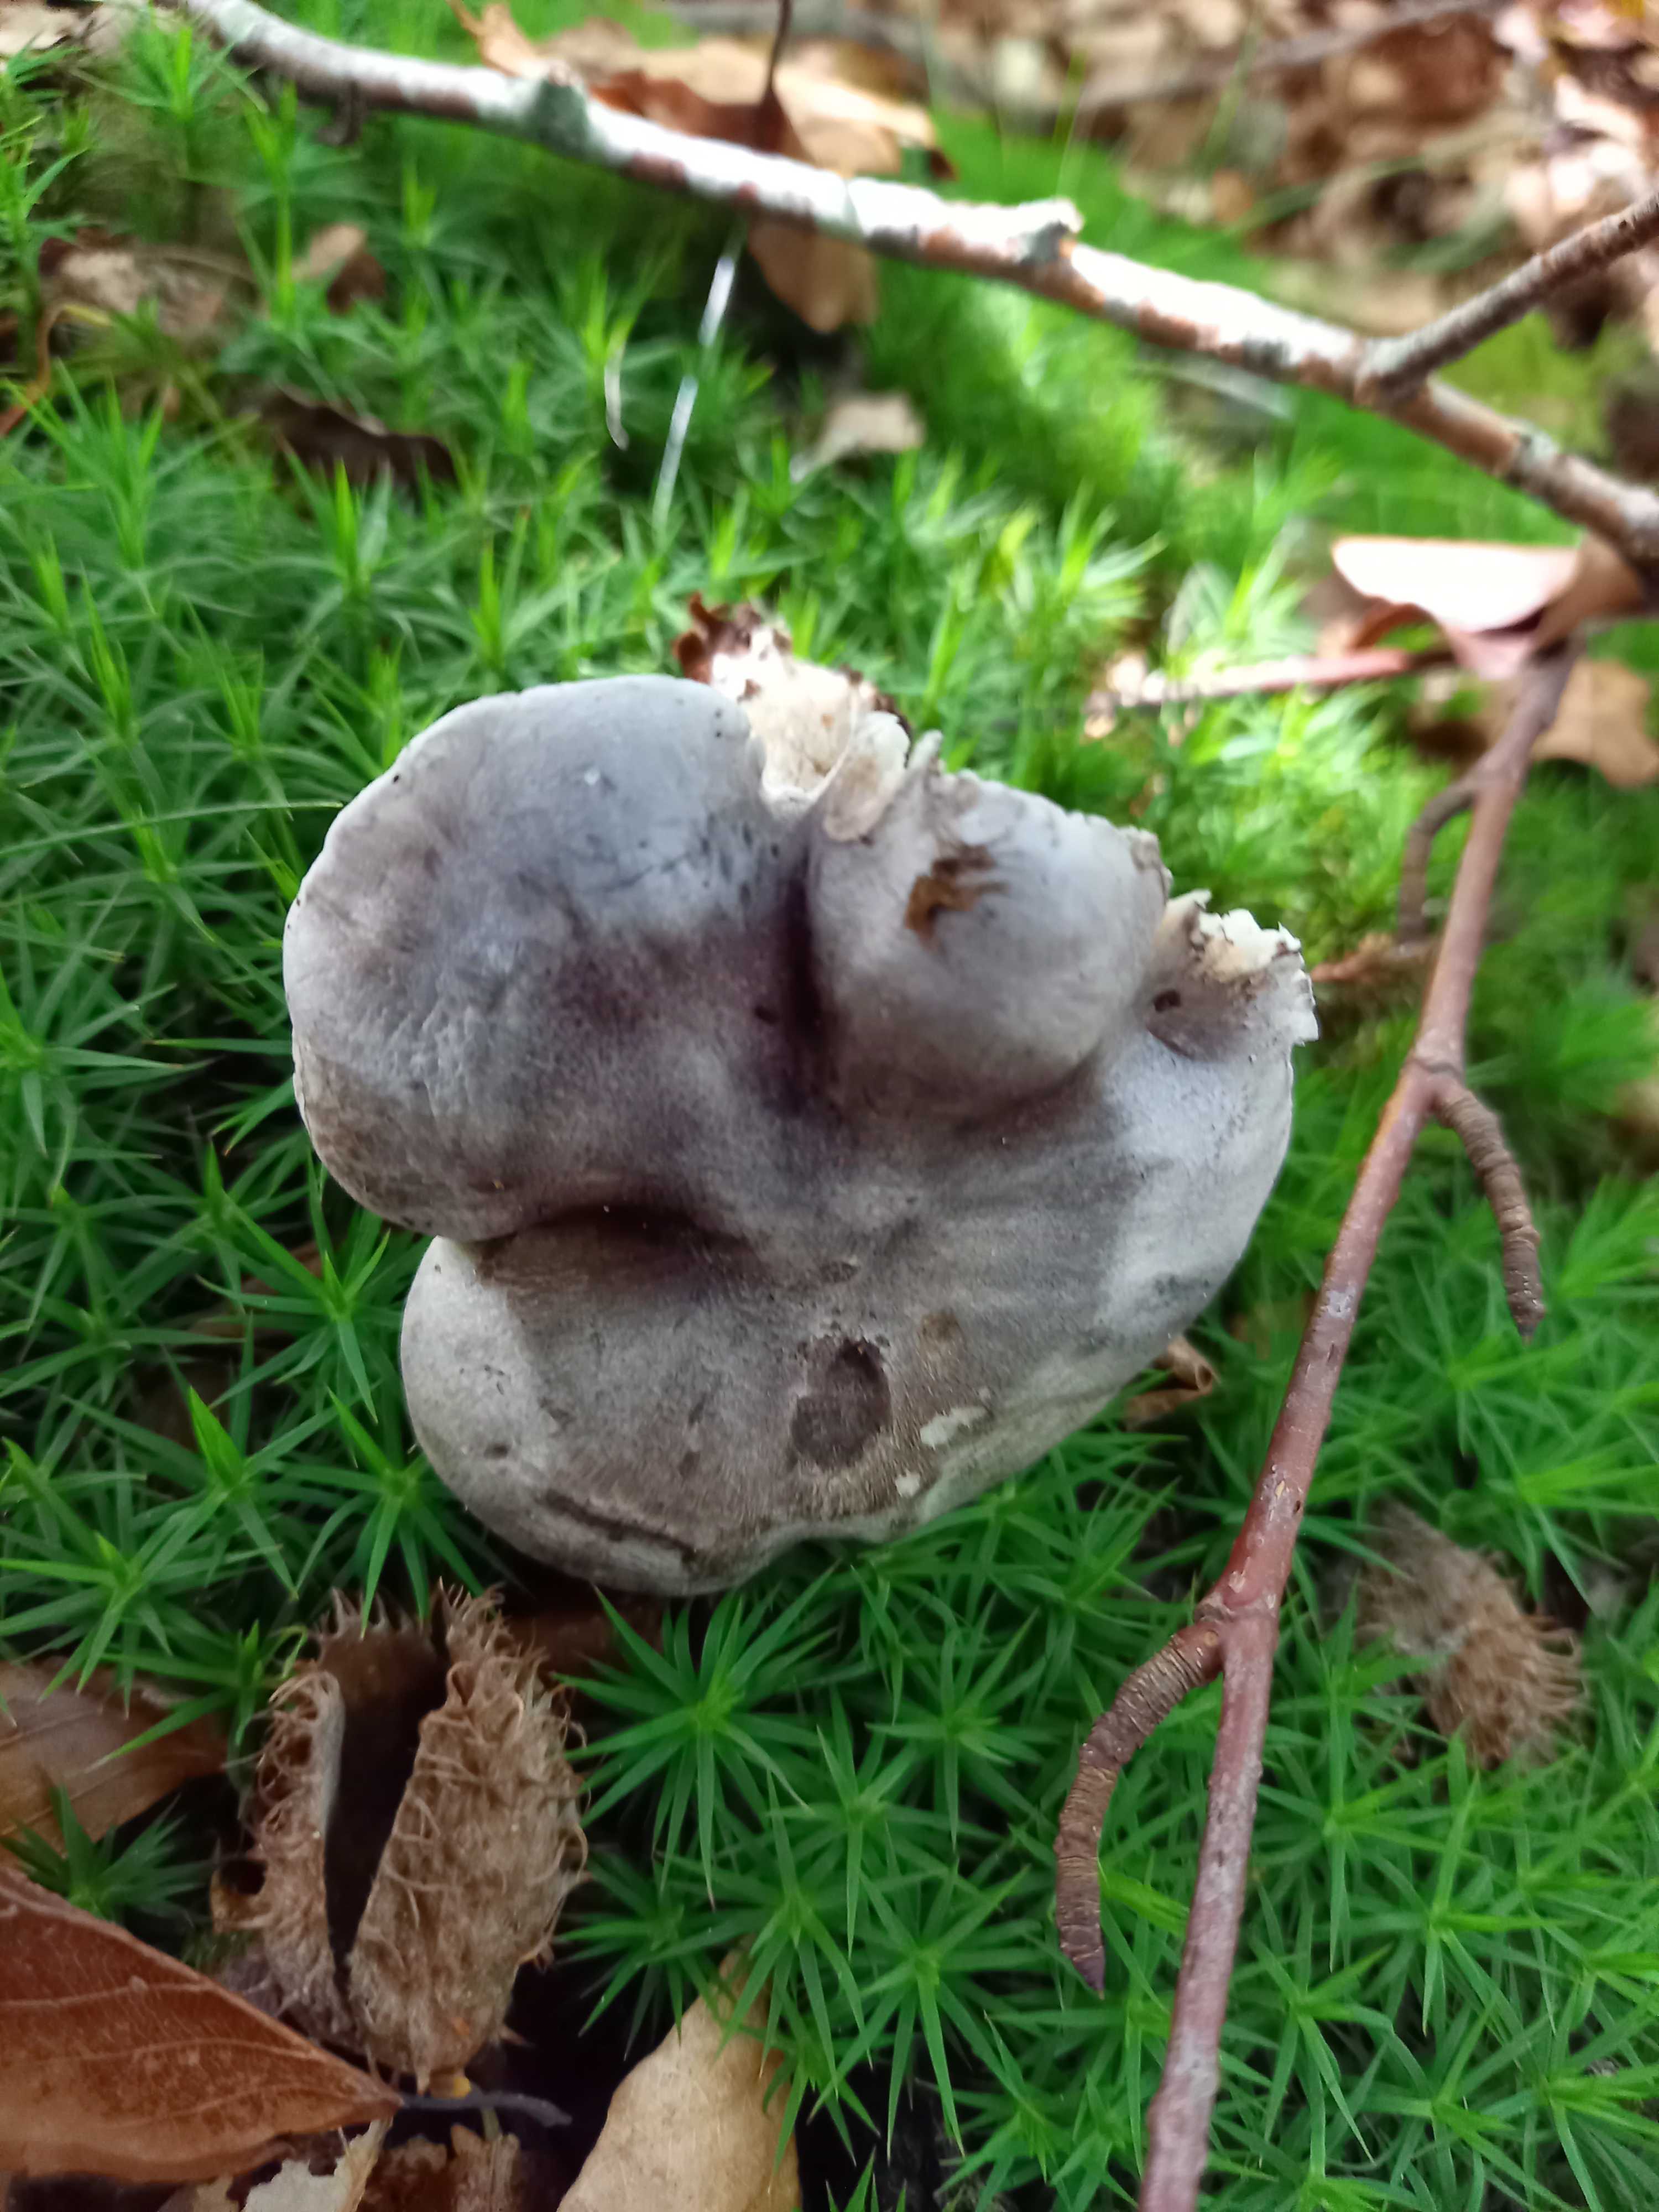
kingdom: Fungi
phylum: Basidiomycota
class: Agaricomycetes
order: Agaricales
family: Tricholomataceae
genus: Tricholoma
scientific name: Tricholoma sciodes
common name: stribet ridderhat
